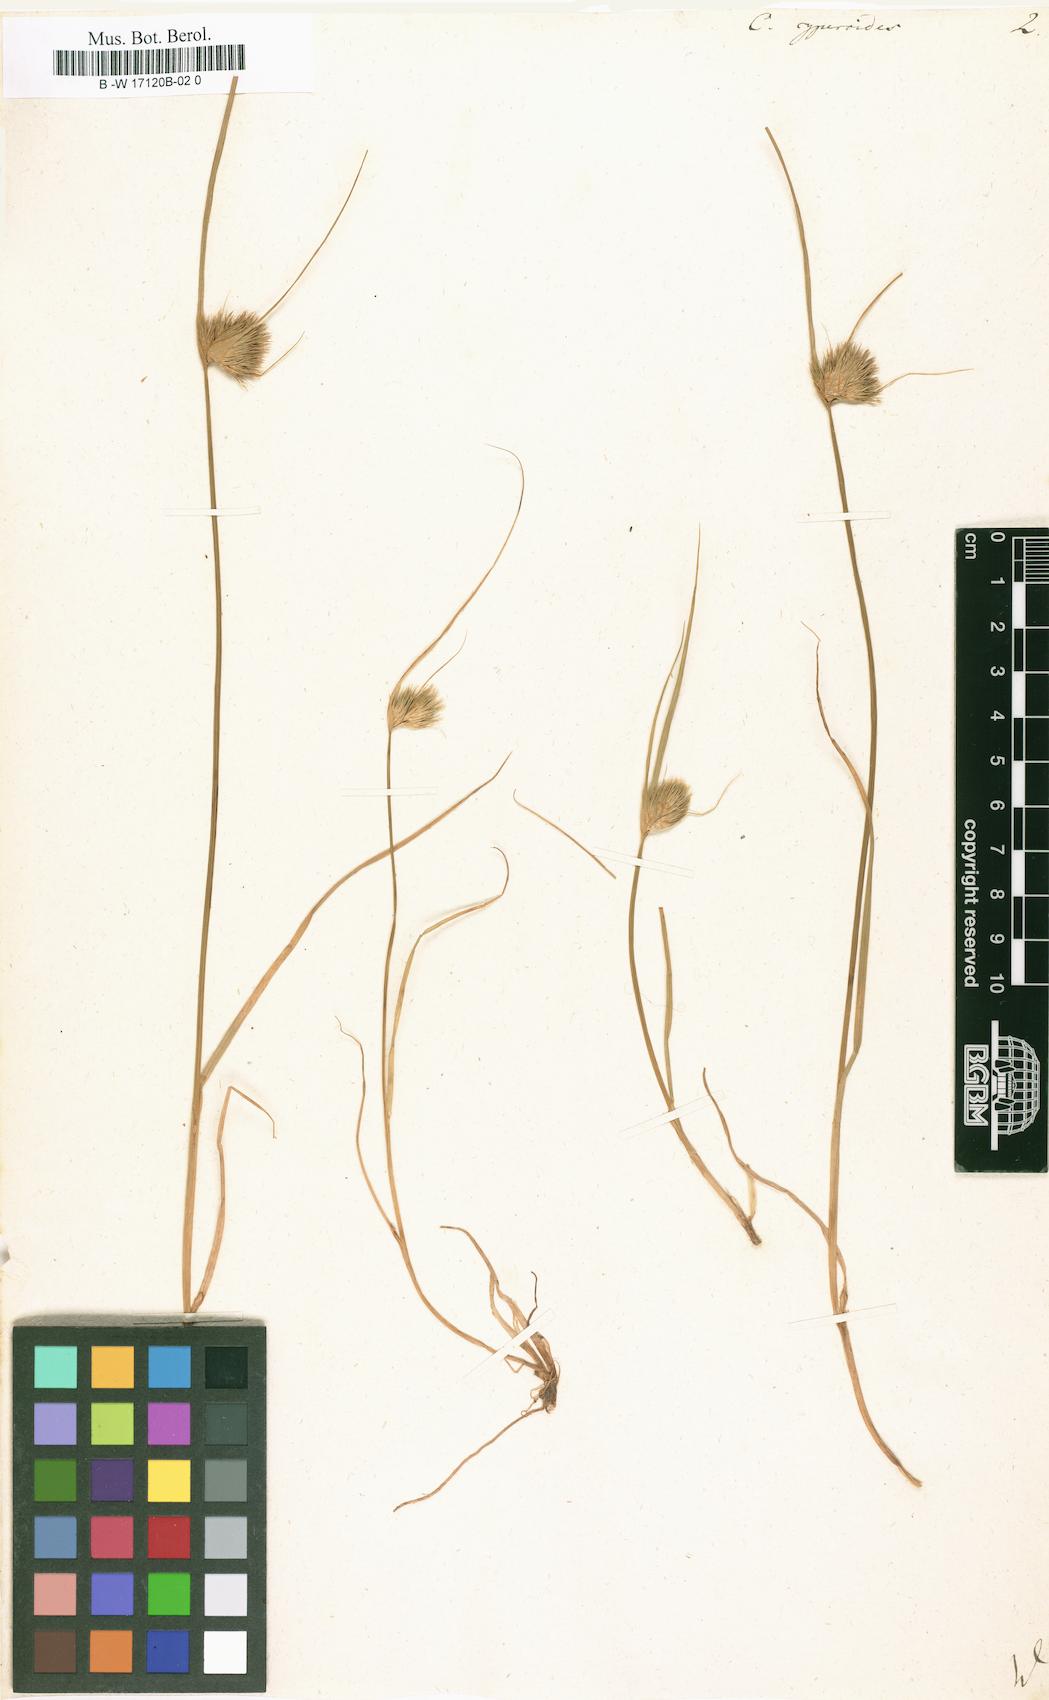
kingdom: Plantae
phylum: Tracheophyta
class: Liliopsida
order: Poales
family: Cyperaceae
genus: Carex
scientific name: Carex bohemica
